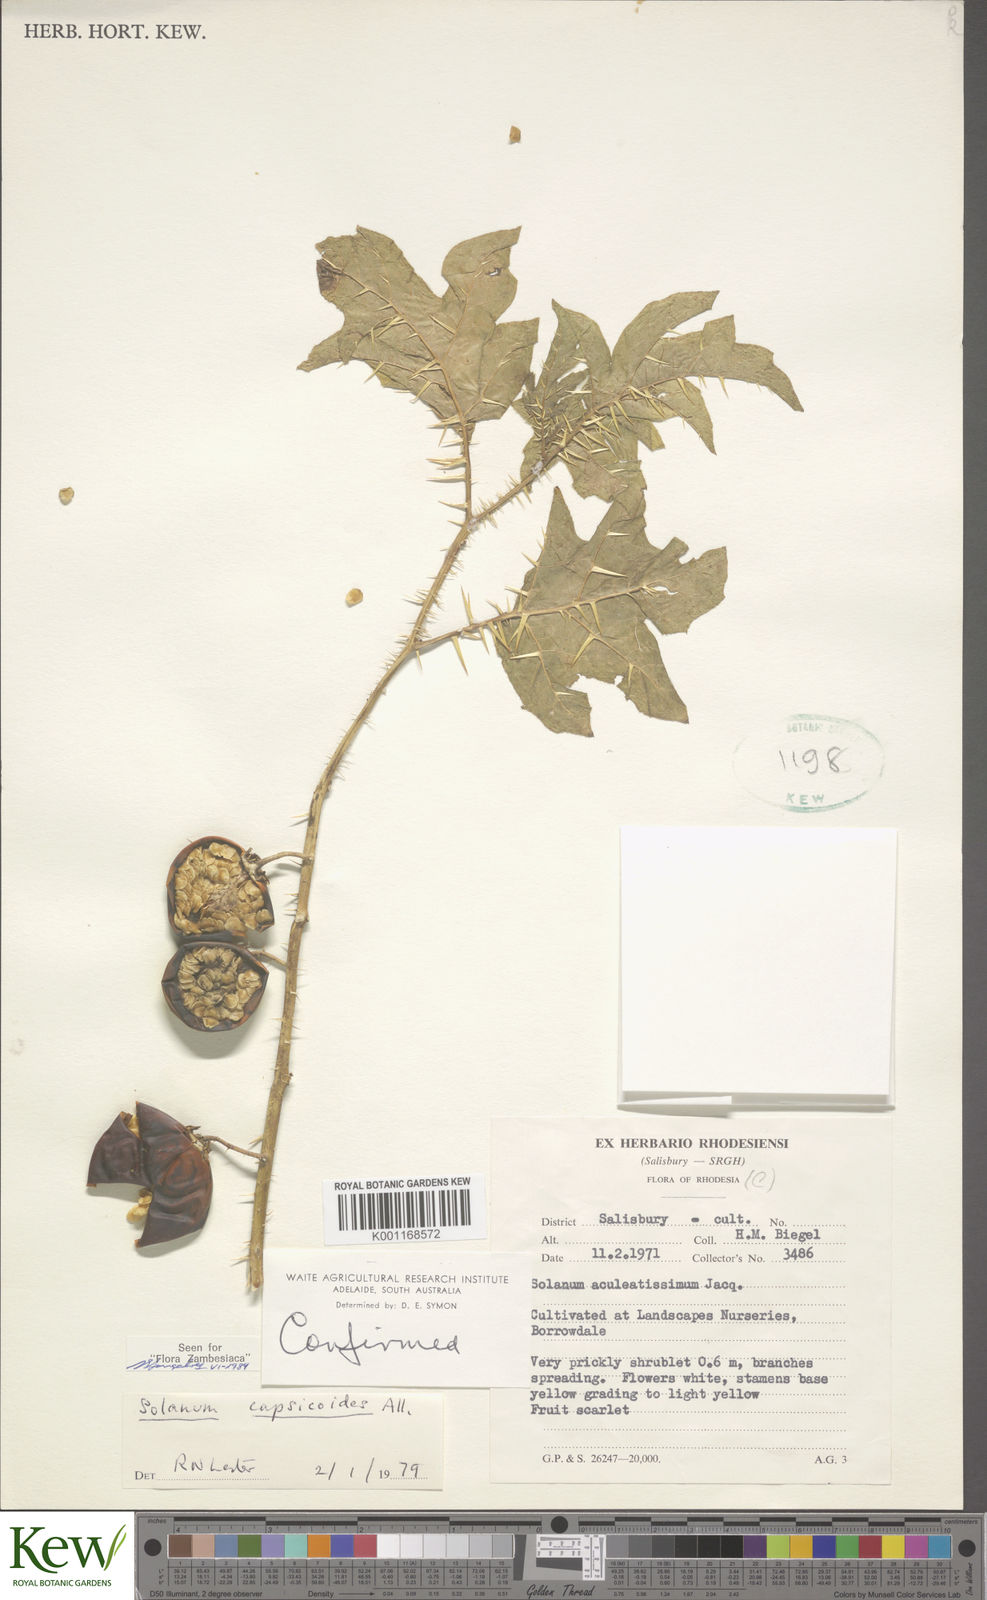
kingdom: Plantae
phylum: Tracheophyta
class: Magnoliopsida
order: Solanales
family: Solanaceae
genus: Solanum
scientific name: Solanum capsicoides
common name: Cockroach berry
